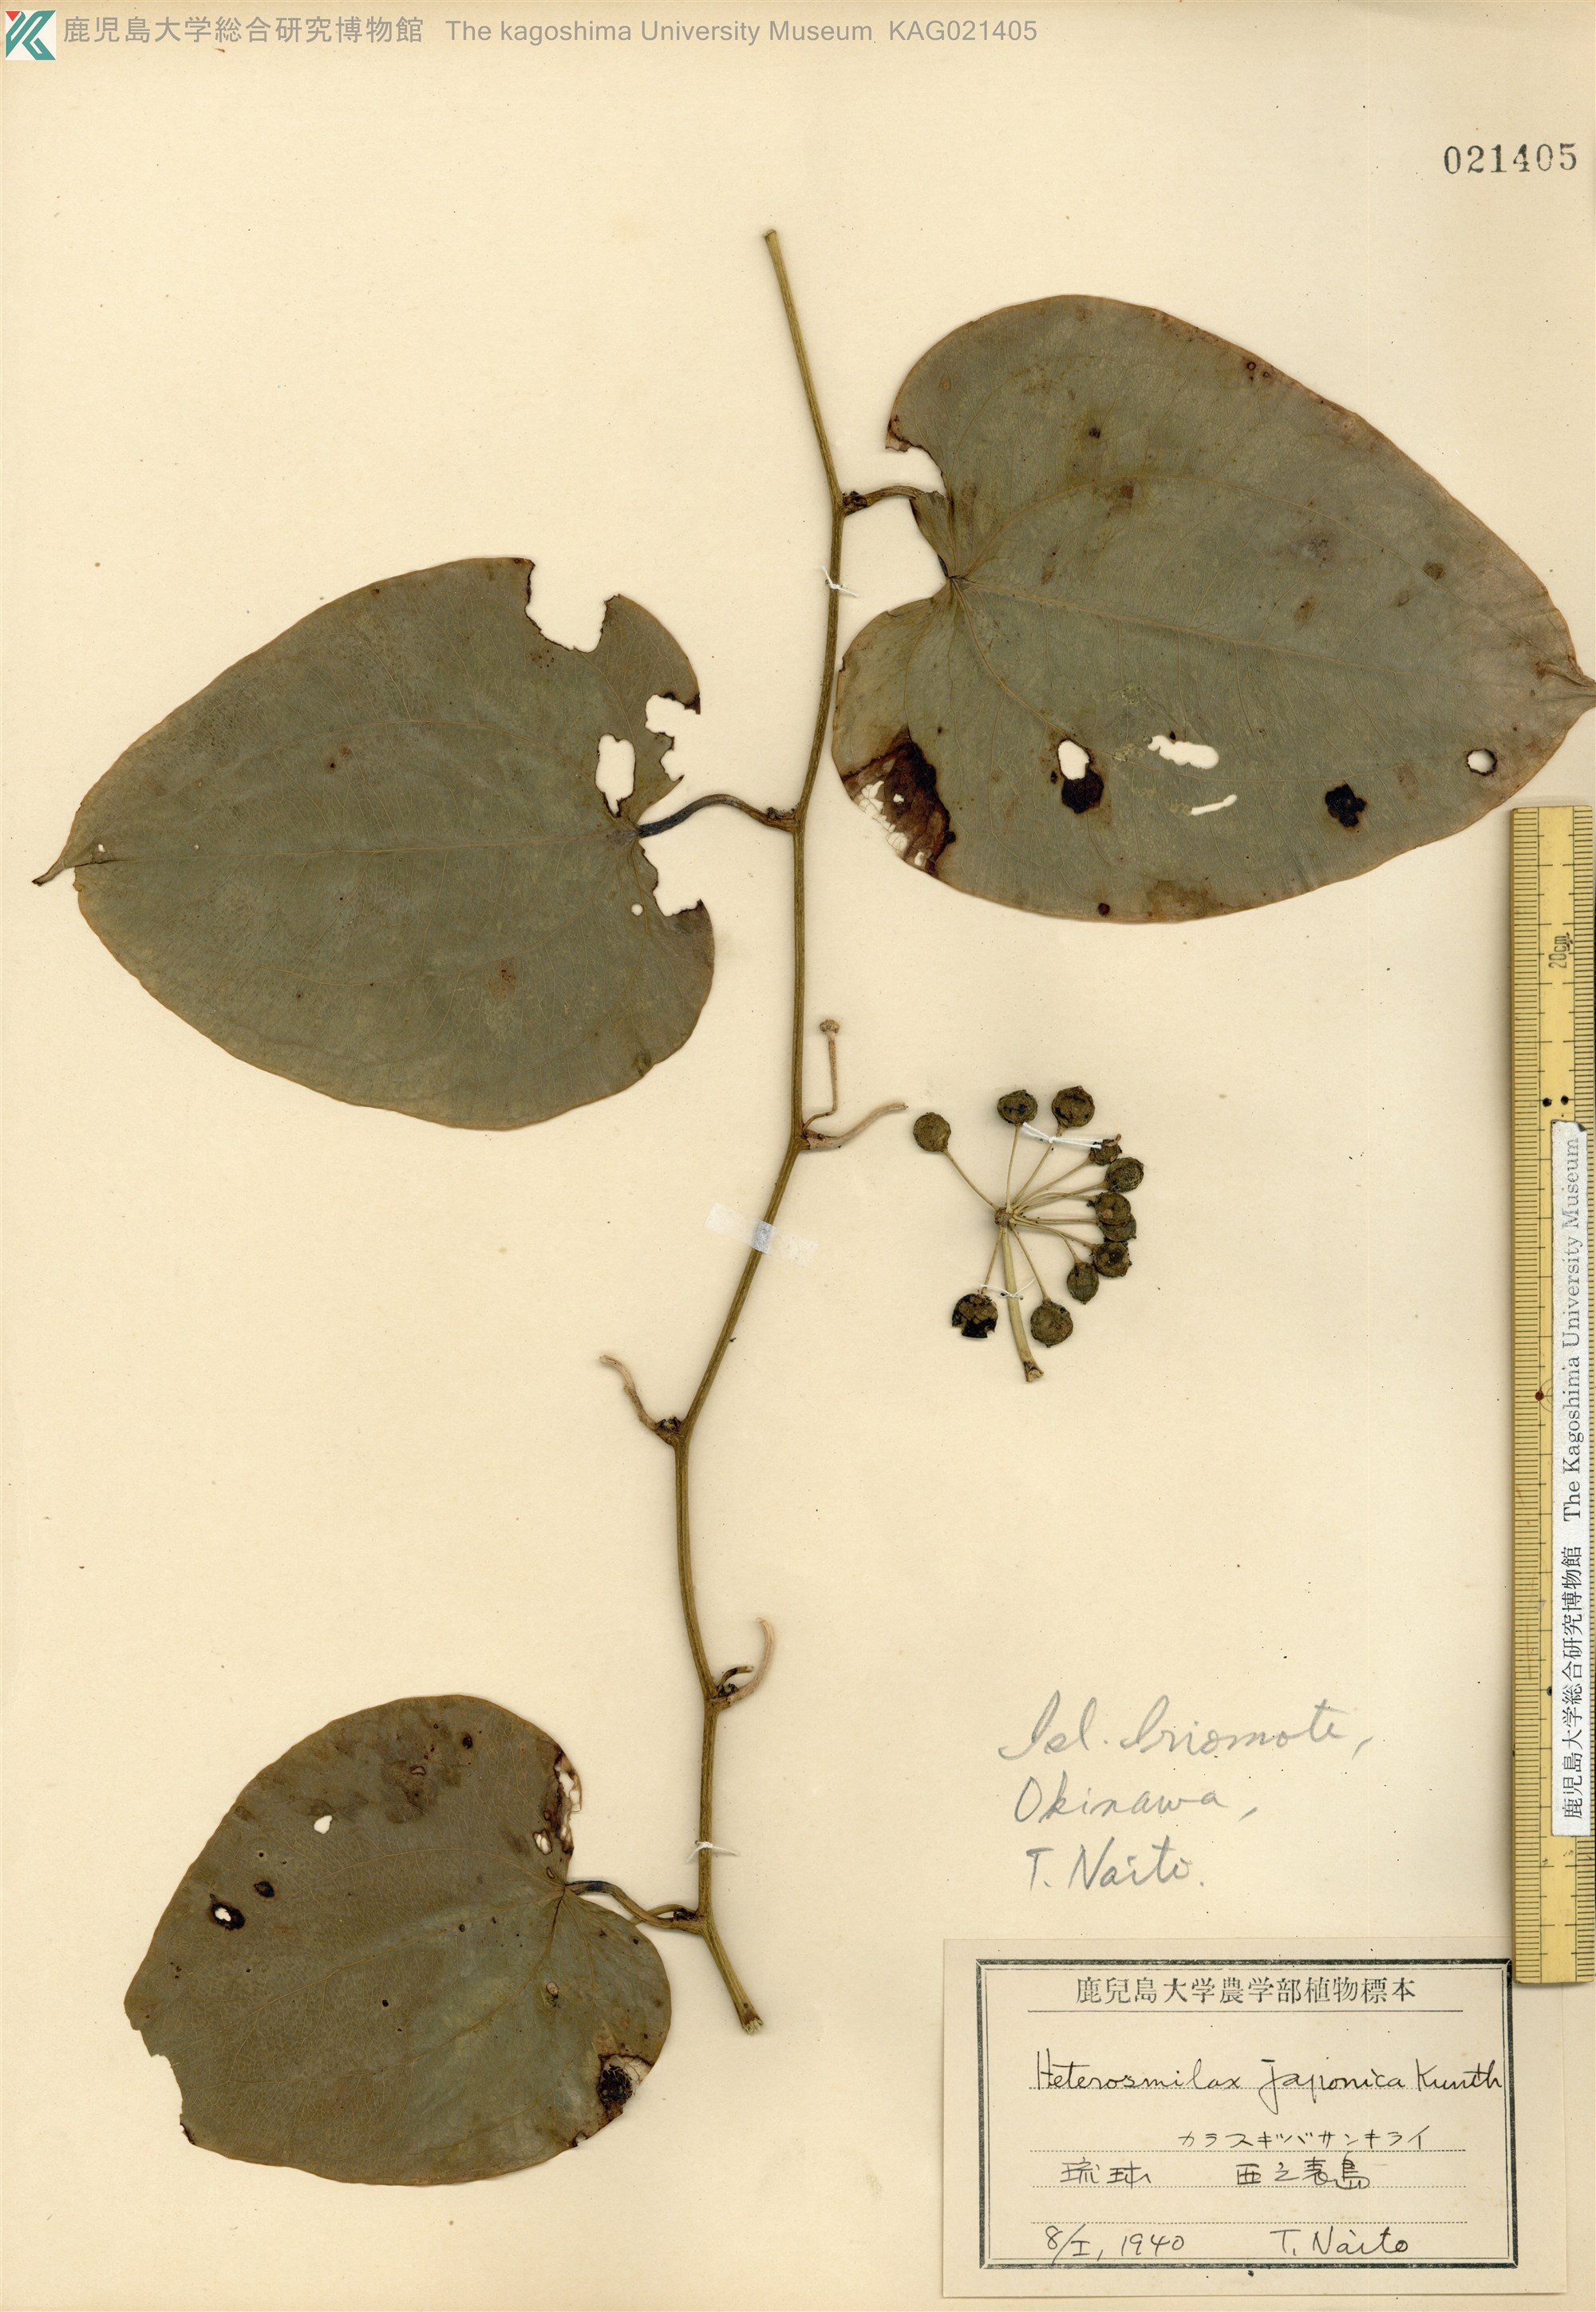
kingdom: Plantae
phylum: Tracheophyta
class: Liliopsida
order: Liliales
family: Smilacaceae
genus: Smilax
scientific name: Smilax insularis
